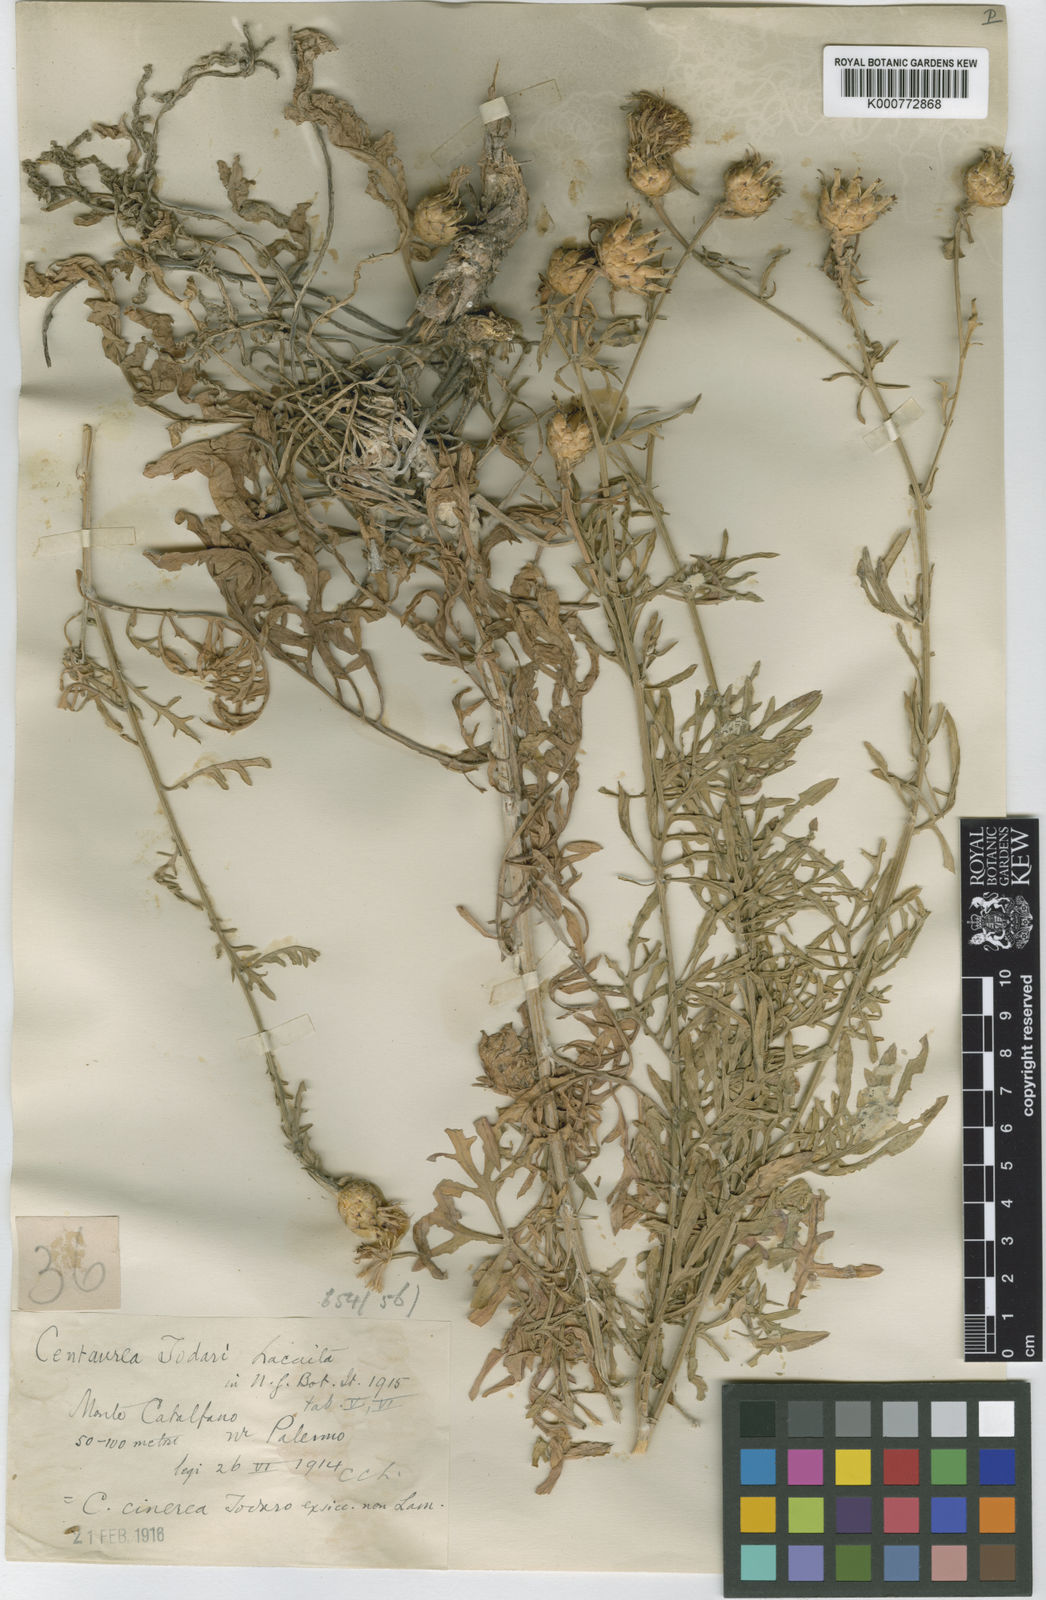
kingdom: Plantae
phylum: Tracheophyta
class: Magnoliopsida
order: Asterales
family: Asteraceae
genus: Centaurea
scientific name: Centaurea cineraria
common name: Dusty miller
